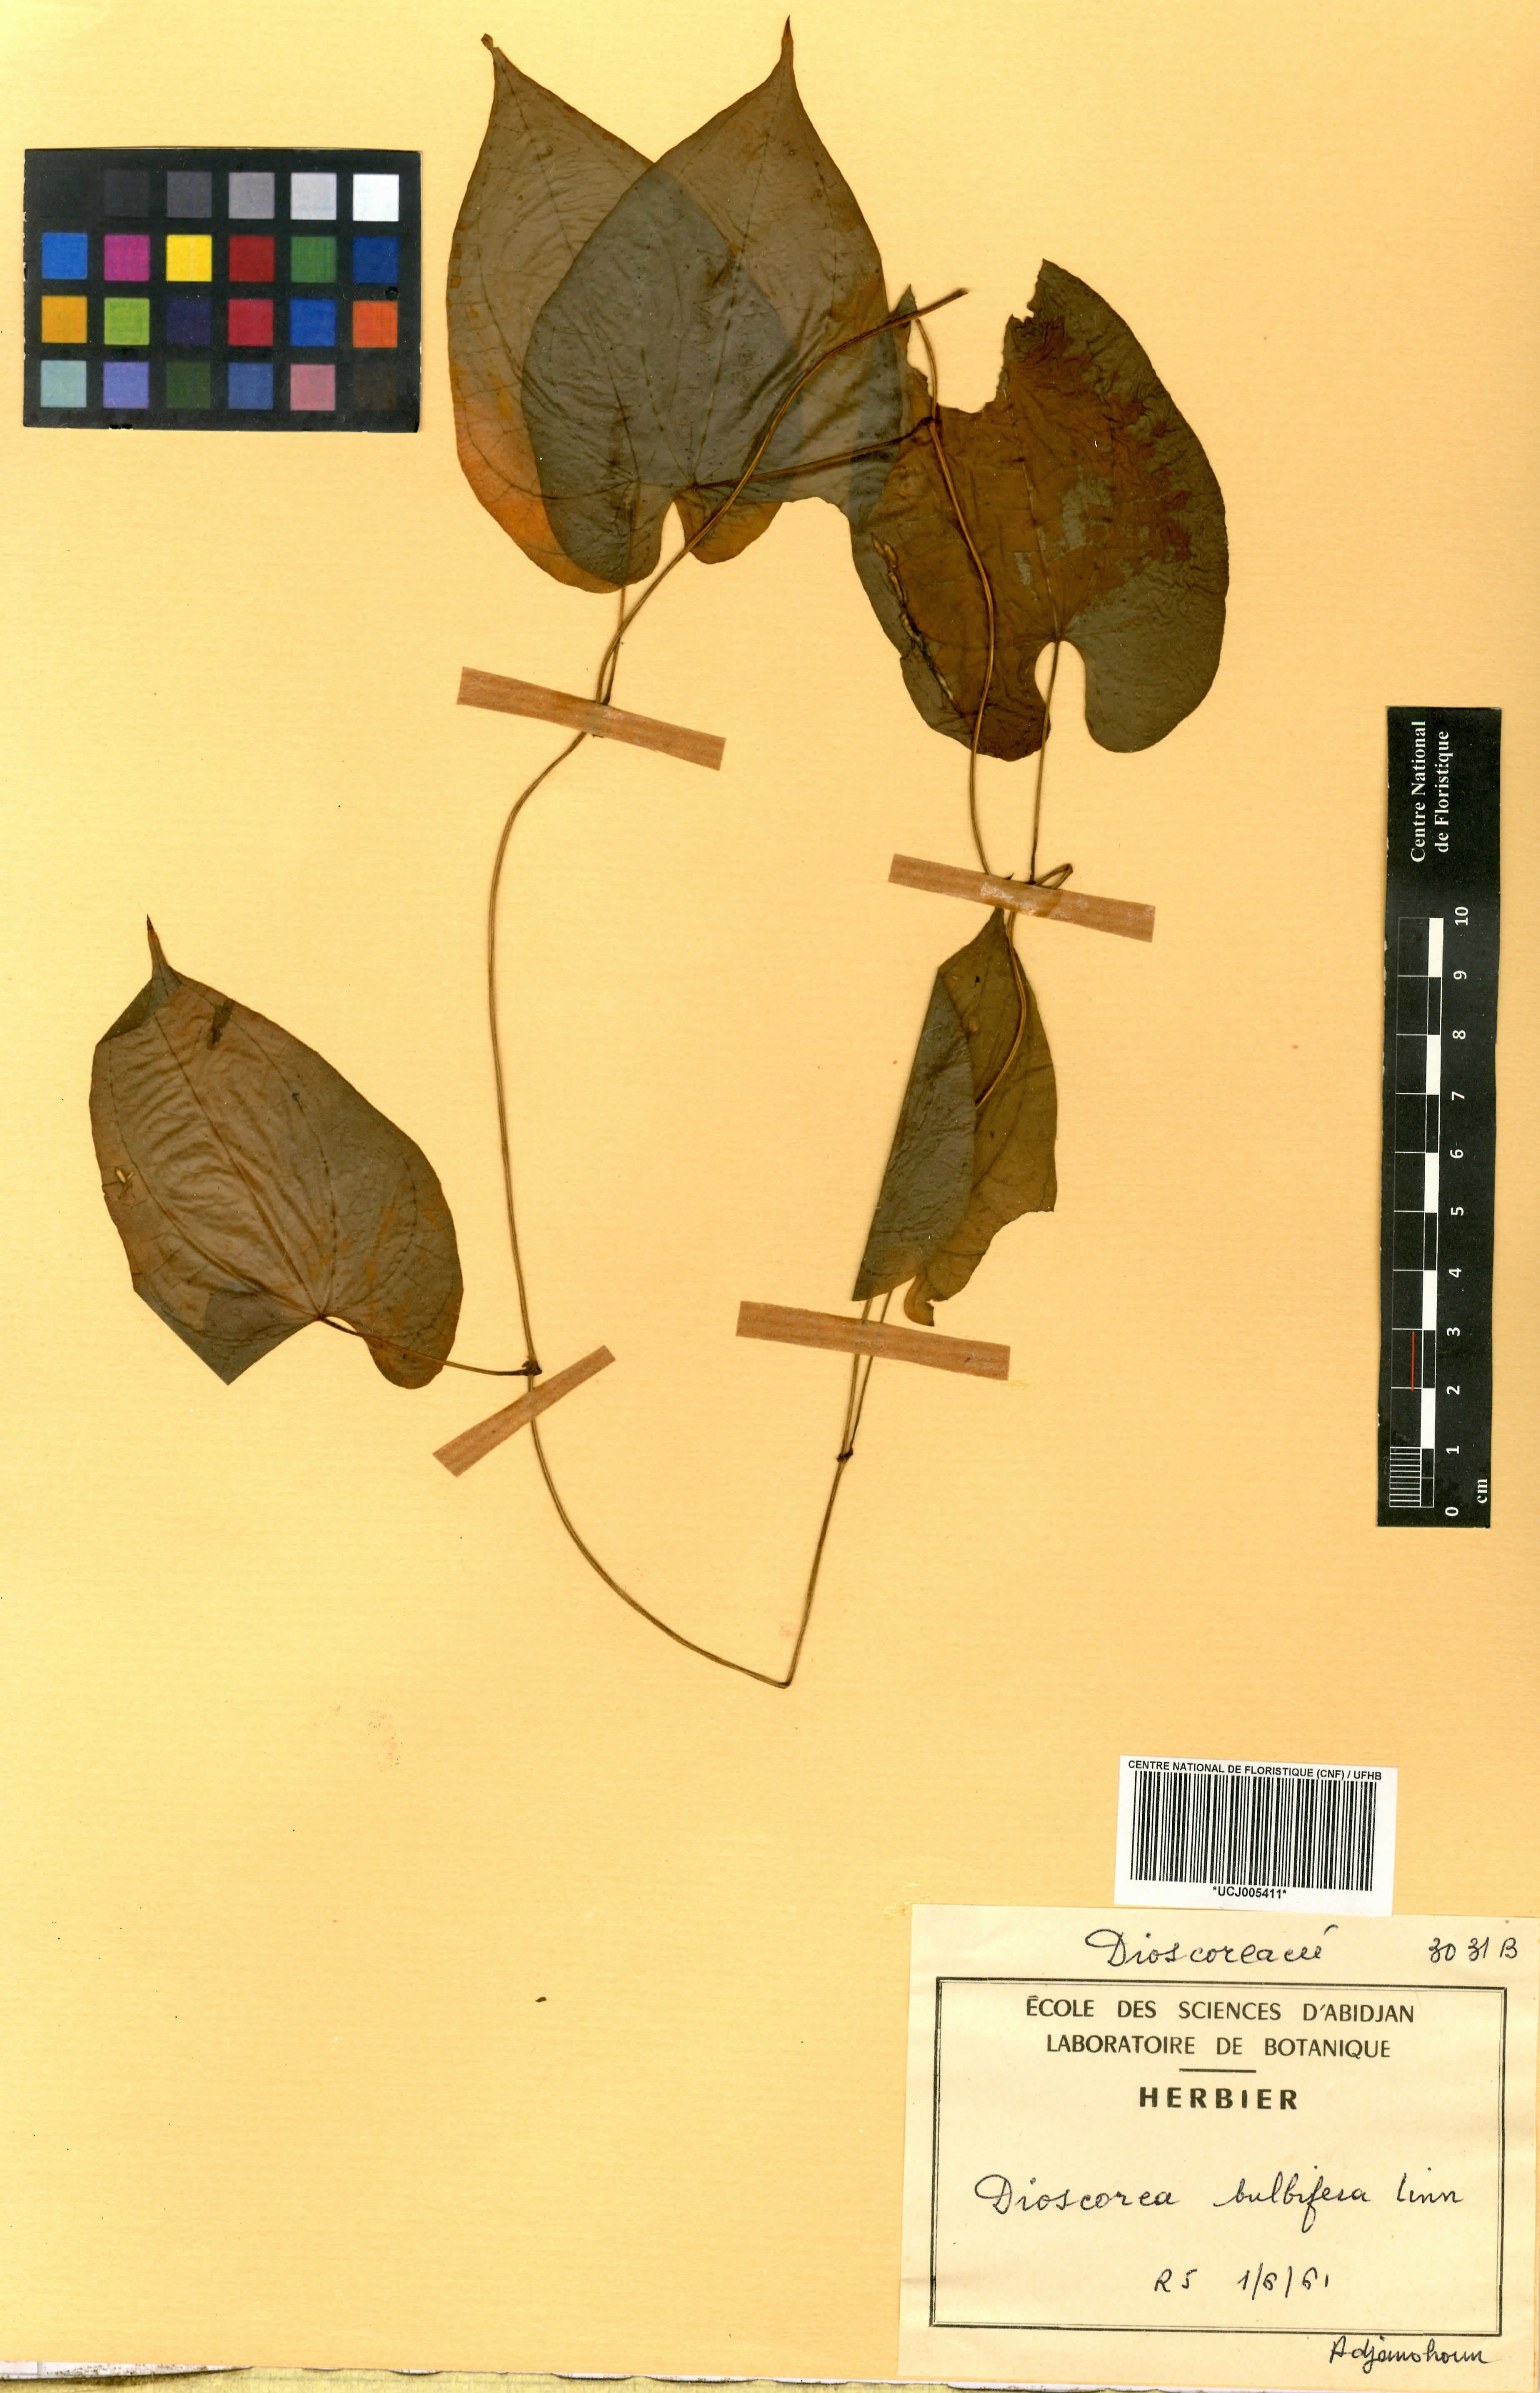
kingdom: Plantae
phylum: Tracheophyta
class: Liliopsida
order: Dioscoreales
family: Dioscoreaceae
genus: Dioscorea
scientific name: Dioscorea bulbifera
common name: Air yam
